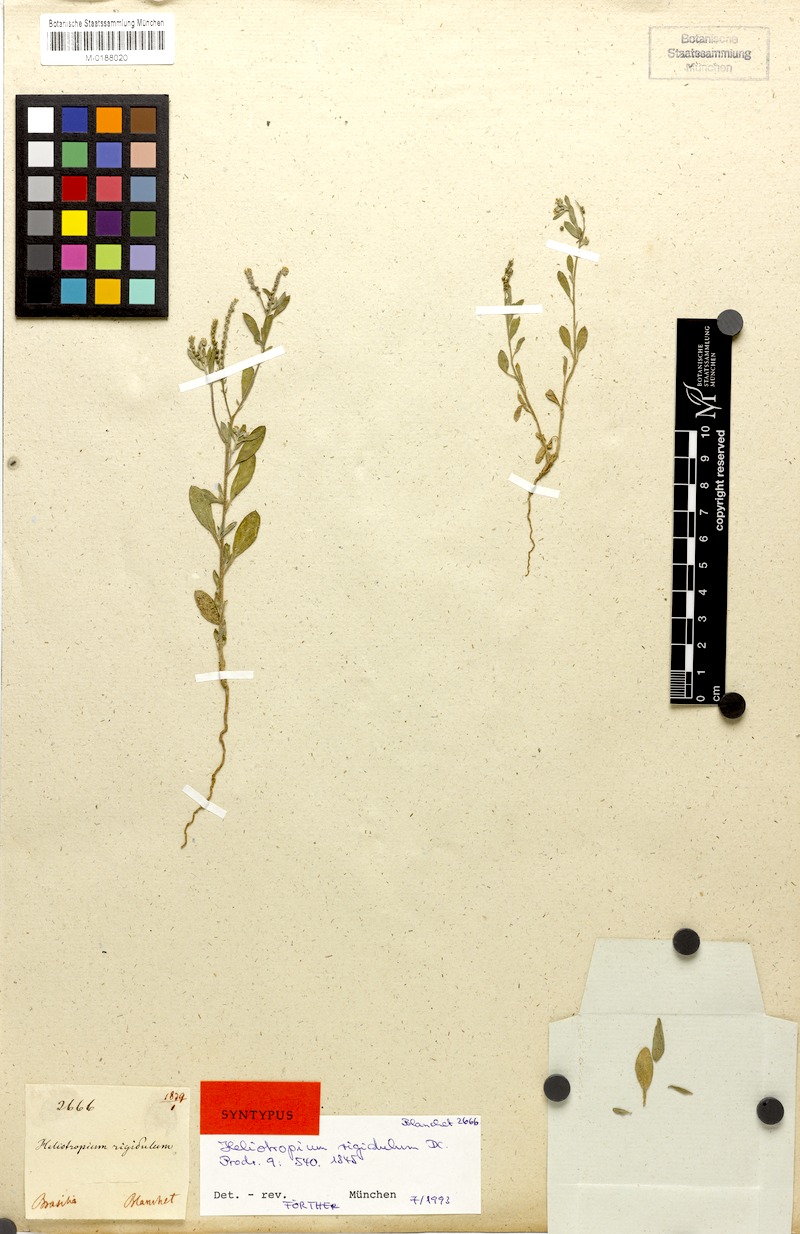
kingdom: Plantae
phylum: Tracheophyta
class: Magnoliopsida
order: Boraginales
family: Heliotropiaceae
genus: Euploca
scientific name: Euploca procumbens
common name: Fourspike heliotrope
